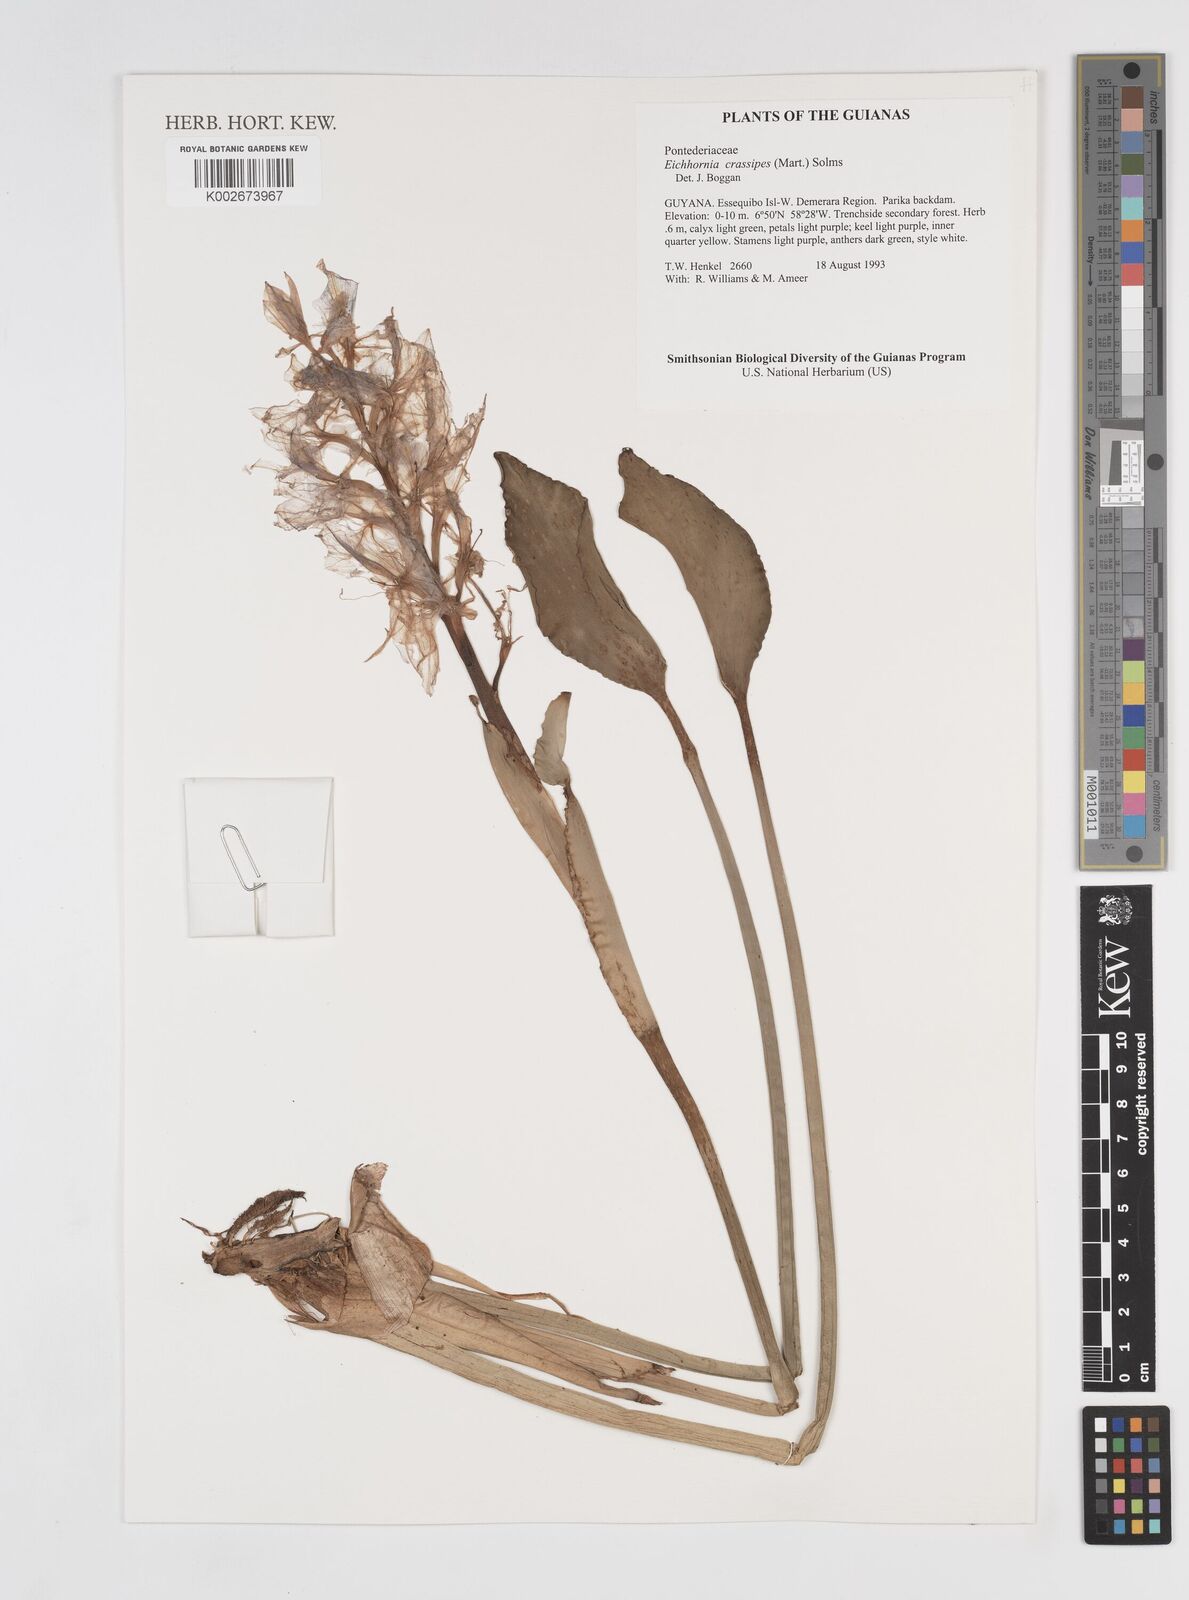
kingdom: Plantae
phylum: Tracheophyta
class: Liliopsida
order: Commelinales
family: Pontederiaceae
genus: Pontederia
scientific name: Pontederia crassipes
